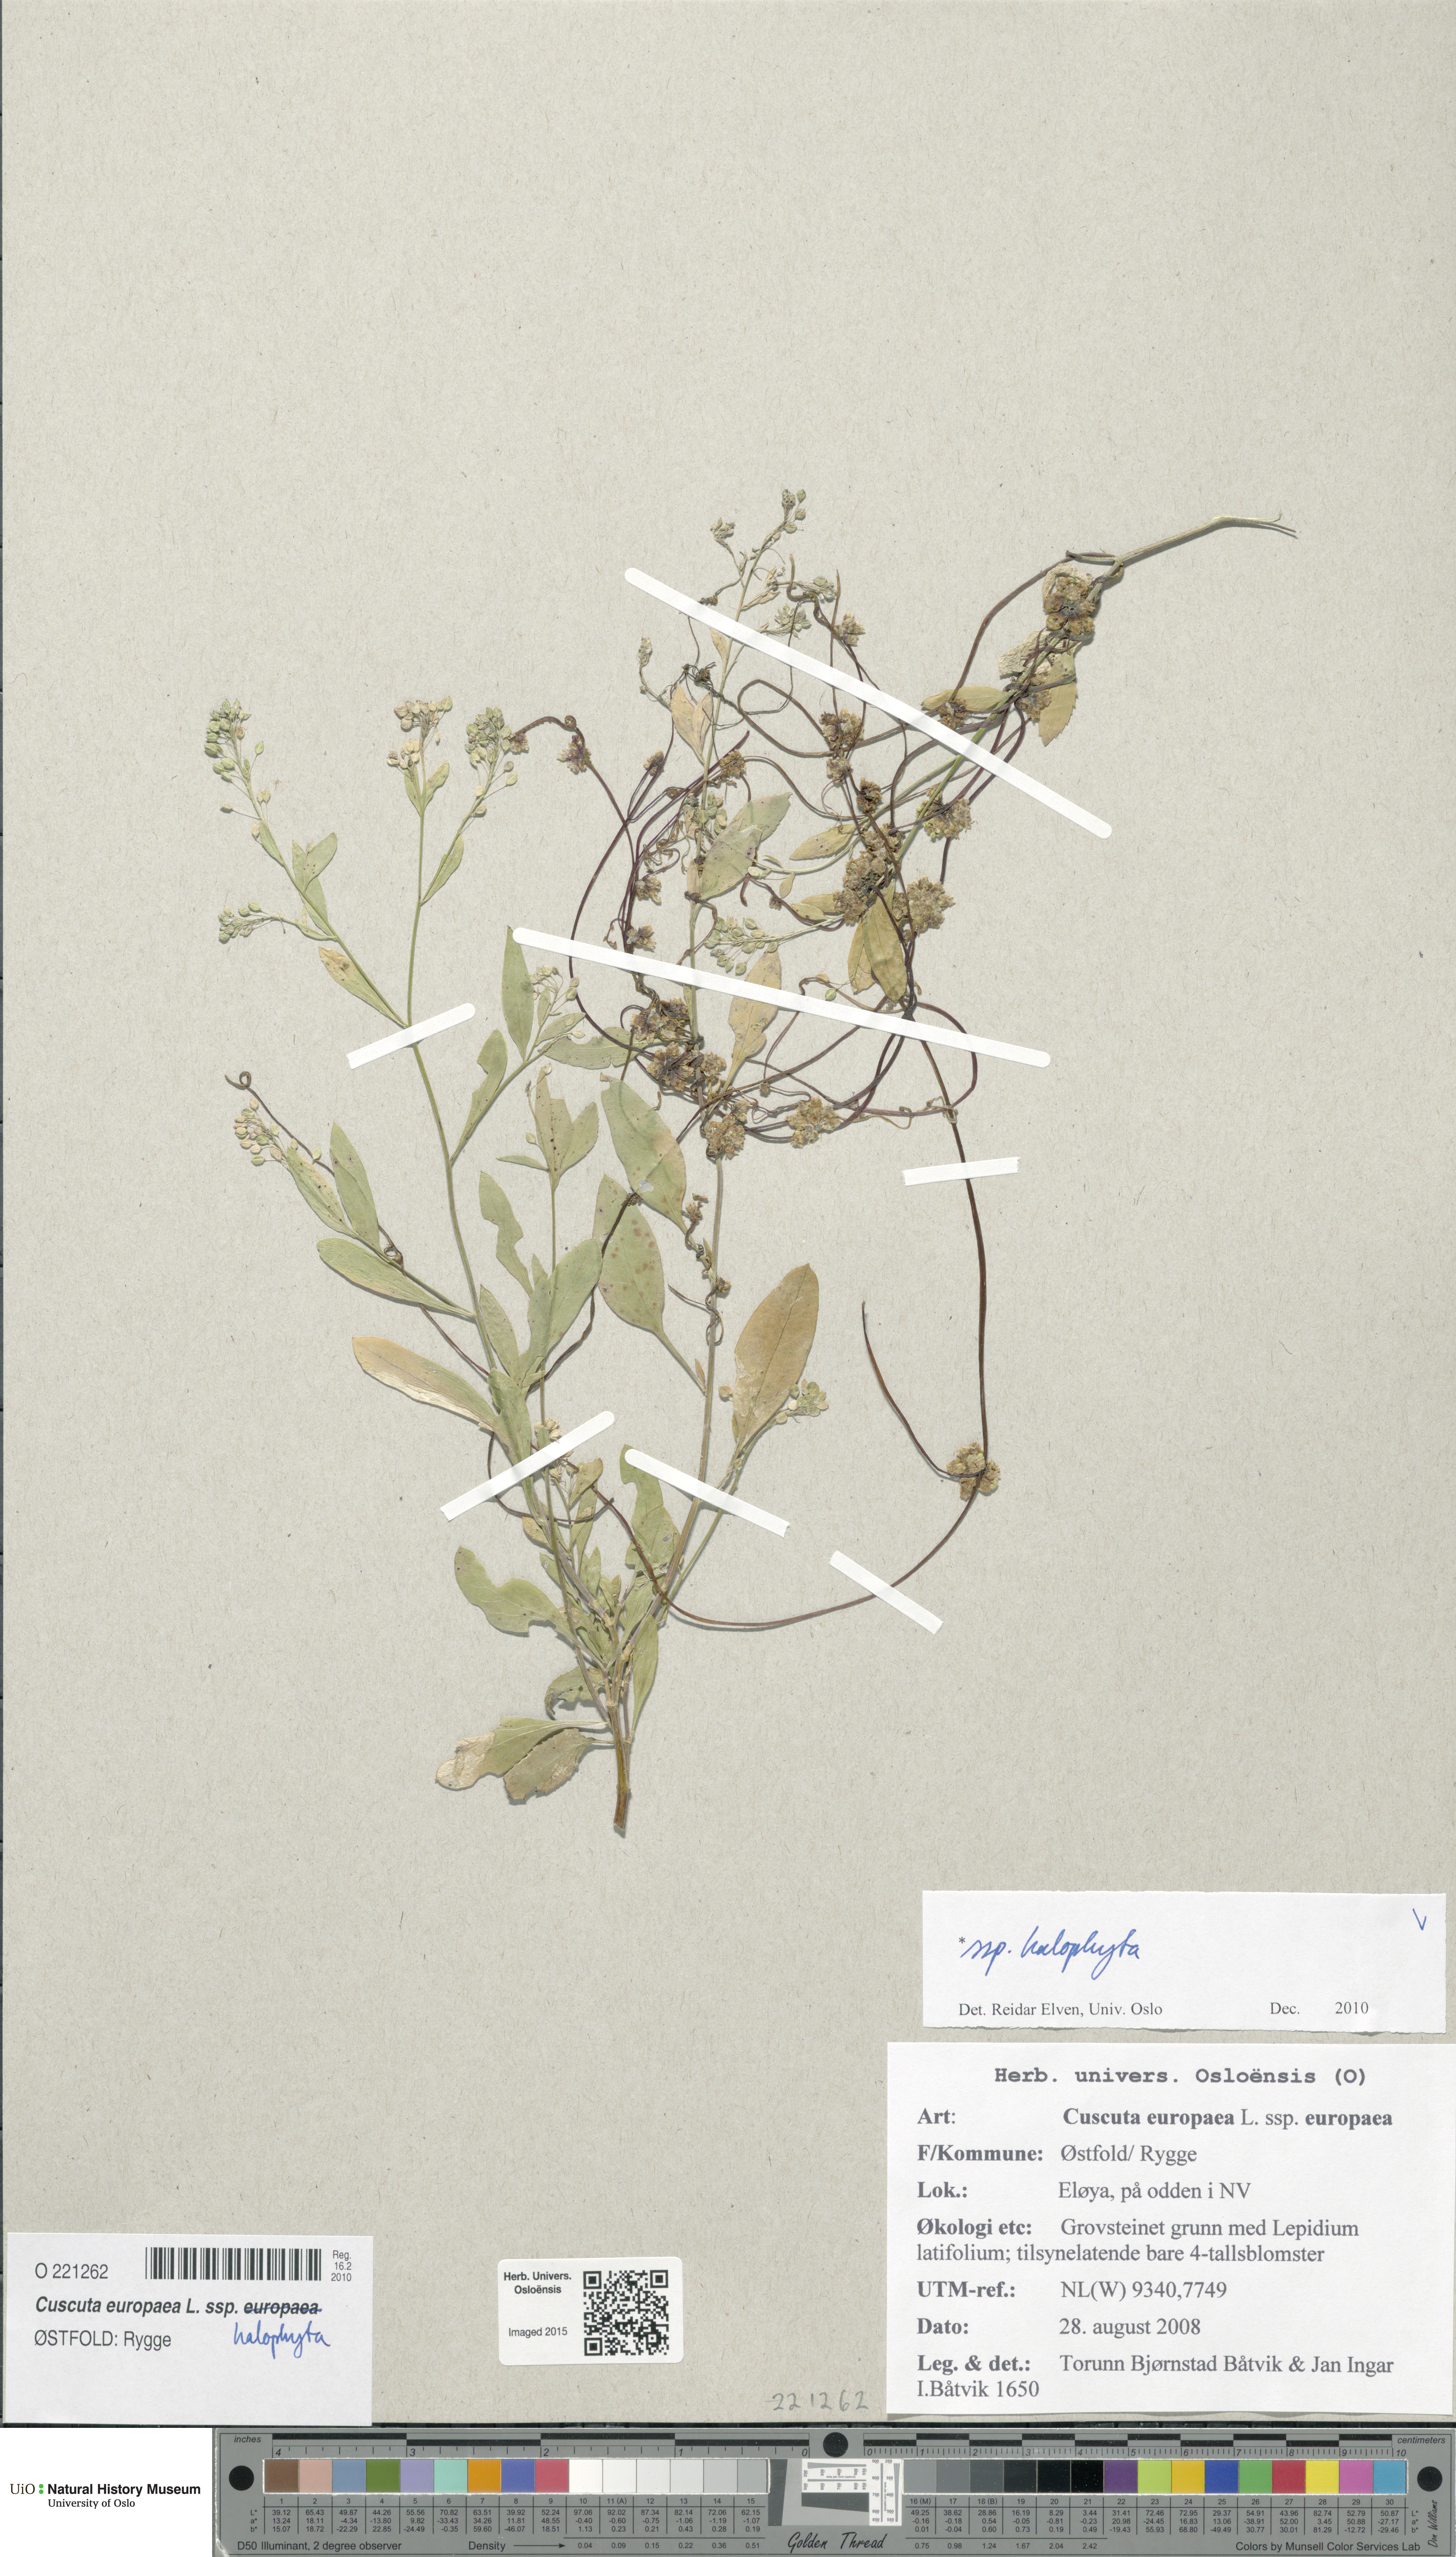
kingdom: Plantae
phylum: Tracheophyta
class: Magnoliopsida
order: Solanales
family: Convolvulaceae
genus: Cuscuta
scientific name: Cuscuta europaea
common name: Greater dodder
